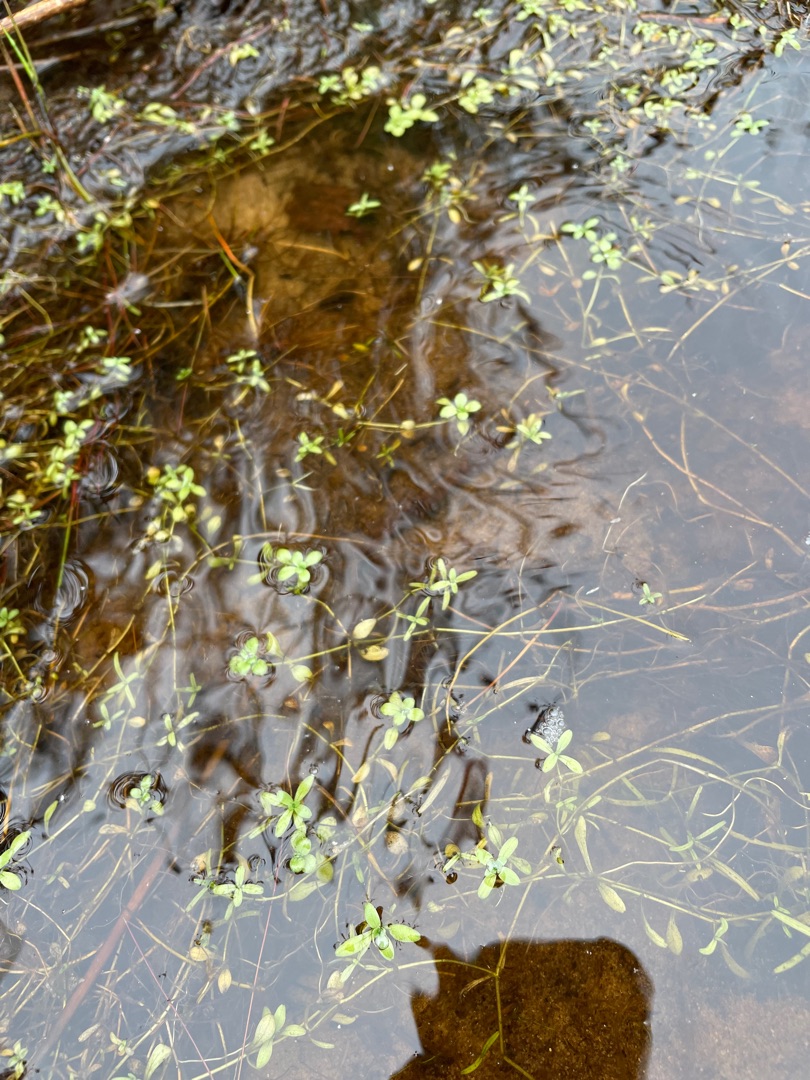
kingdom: Plantae
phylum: Tracheophyta
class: Magnoliopsida
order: Lamiales
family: Plantaginaceae
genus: Callitriche
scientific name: Callitriche
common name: Vandstjerneslægten
